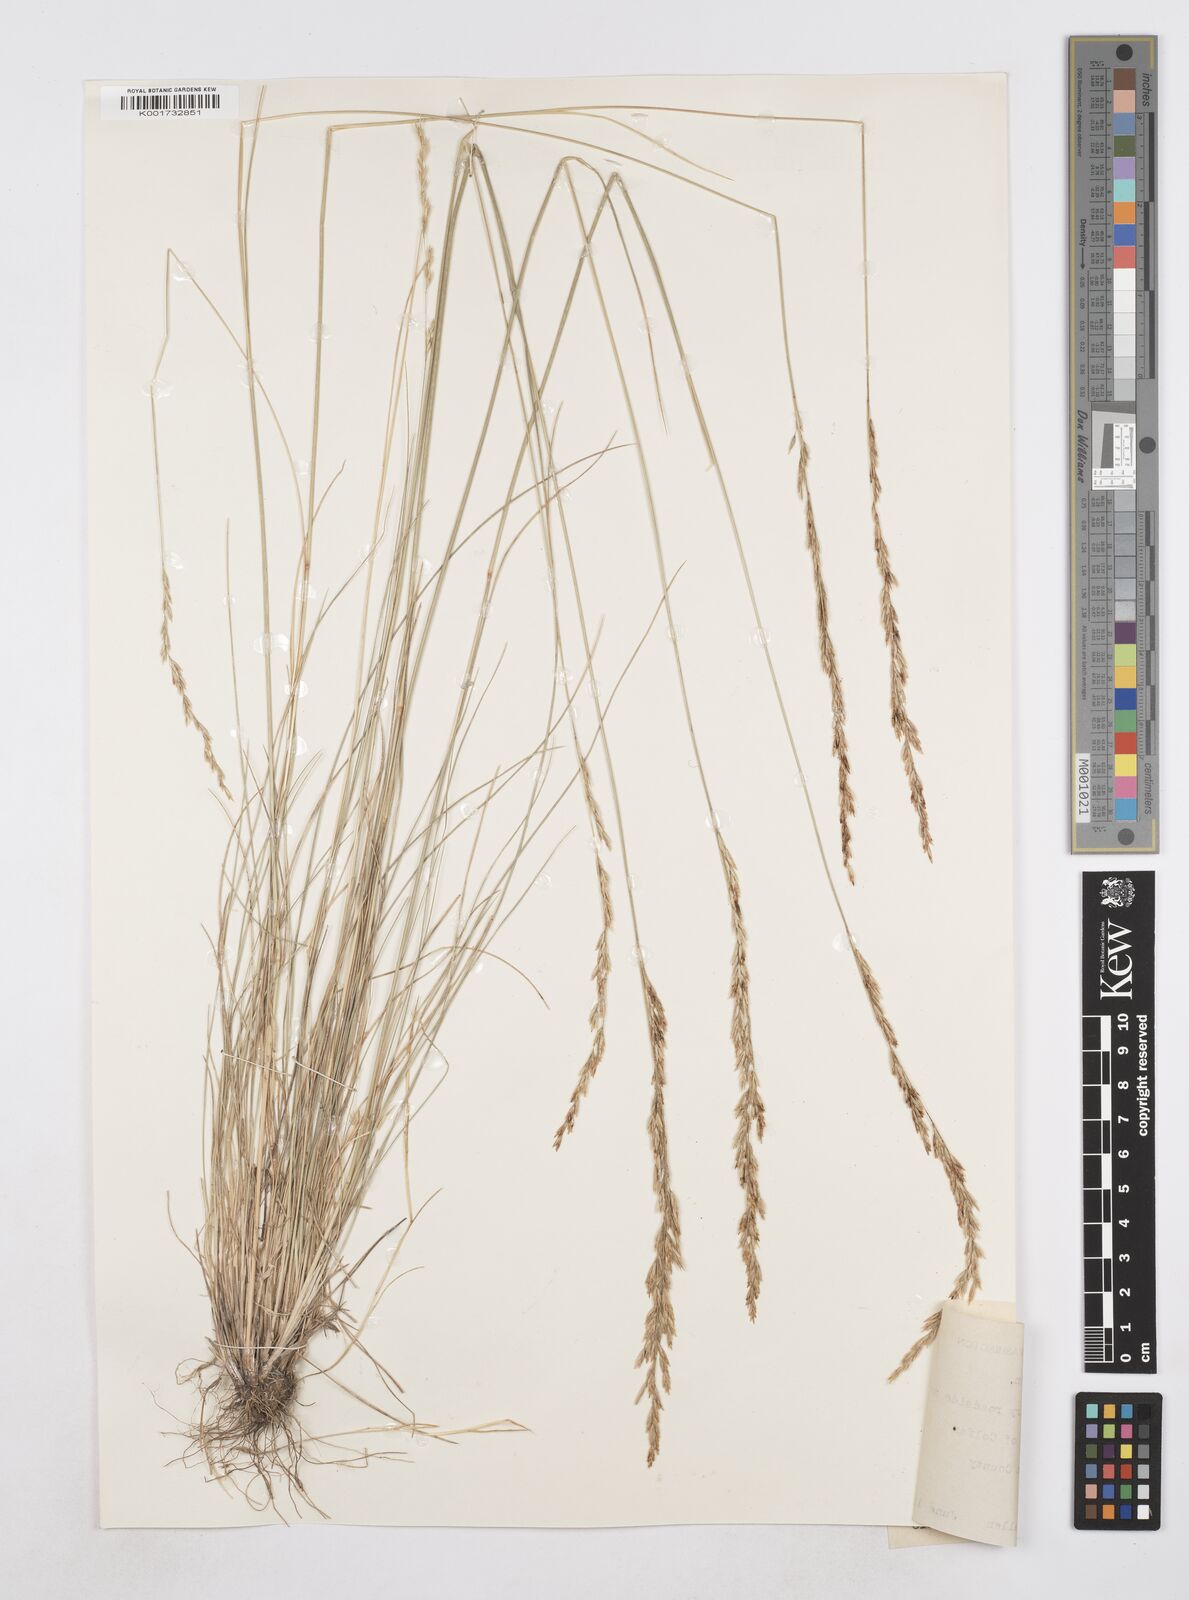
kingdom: Plantae
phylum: Tracheophyta
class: Liliopsida
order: Poales
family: Poaceae
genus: Poa
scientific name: Poa secunda
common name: Sandberg bluegrass
